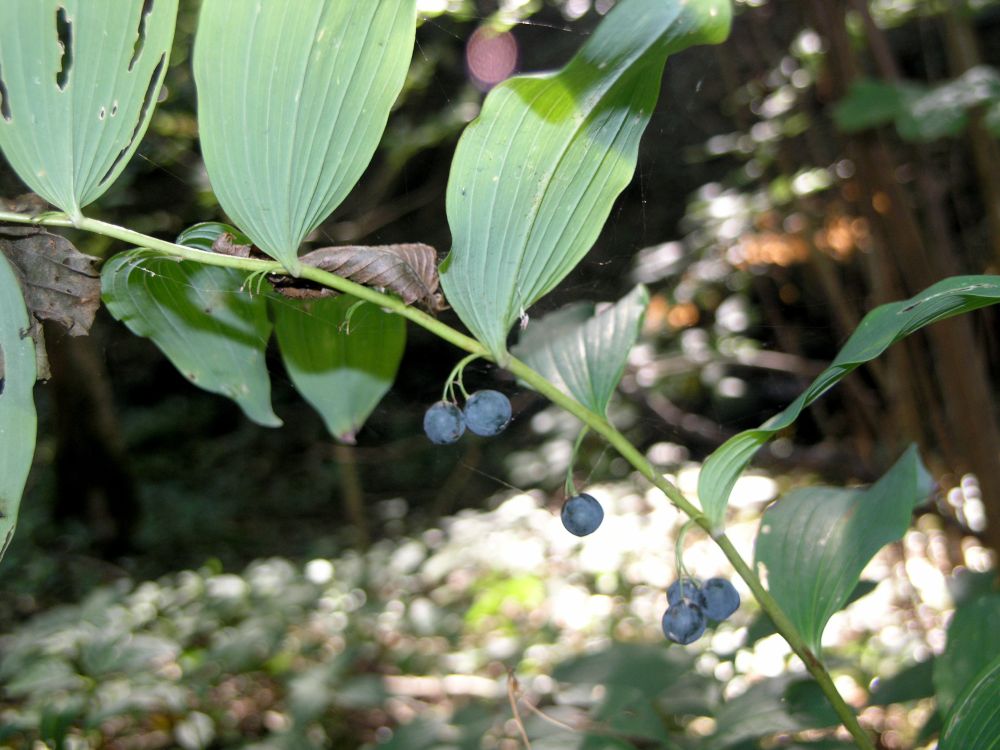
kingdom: Plantae
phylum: Tracheophyta
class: Liliopsida
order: Asparagales
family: Asparagaceae
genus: Polygonatum
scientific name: Polygonatum multiflorum
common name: Solomon's-seal
